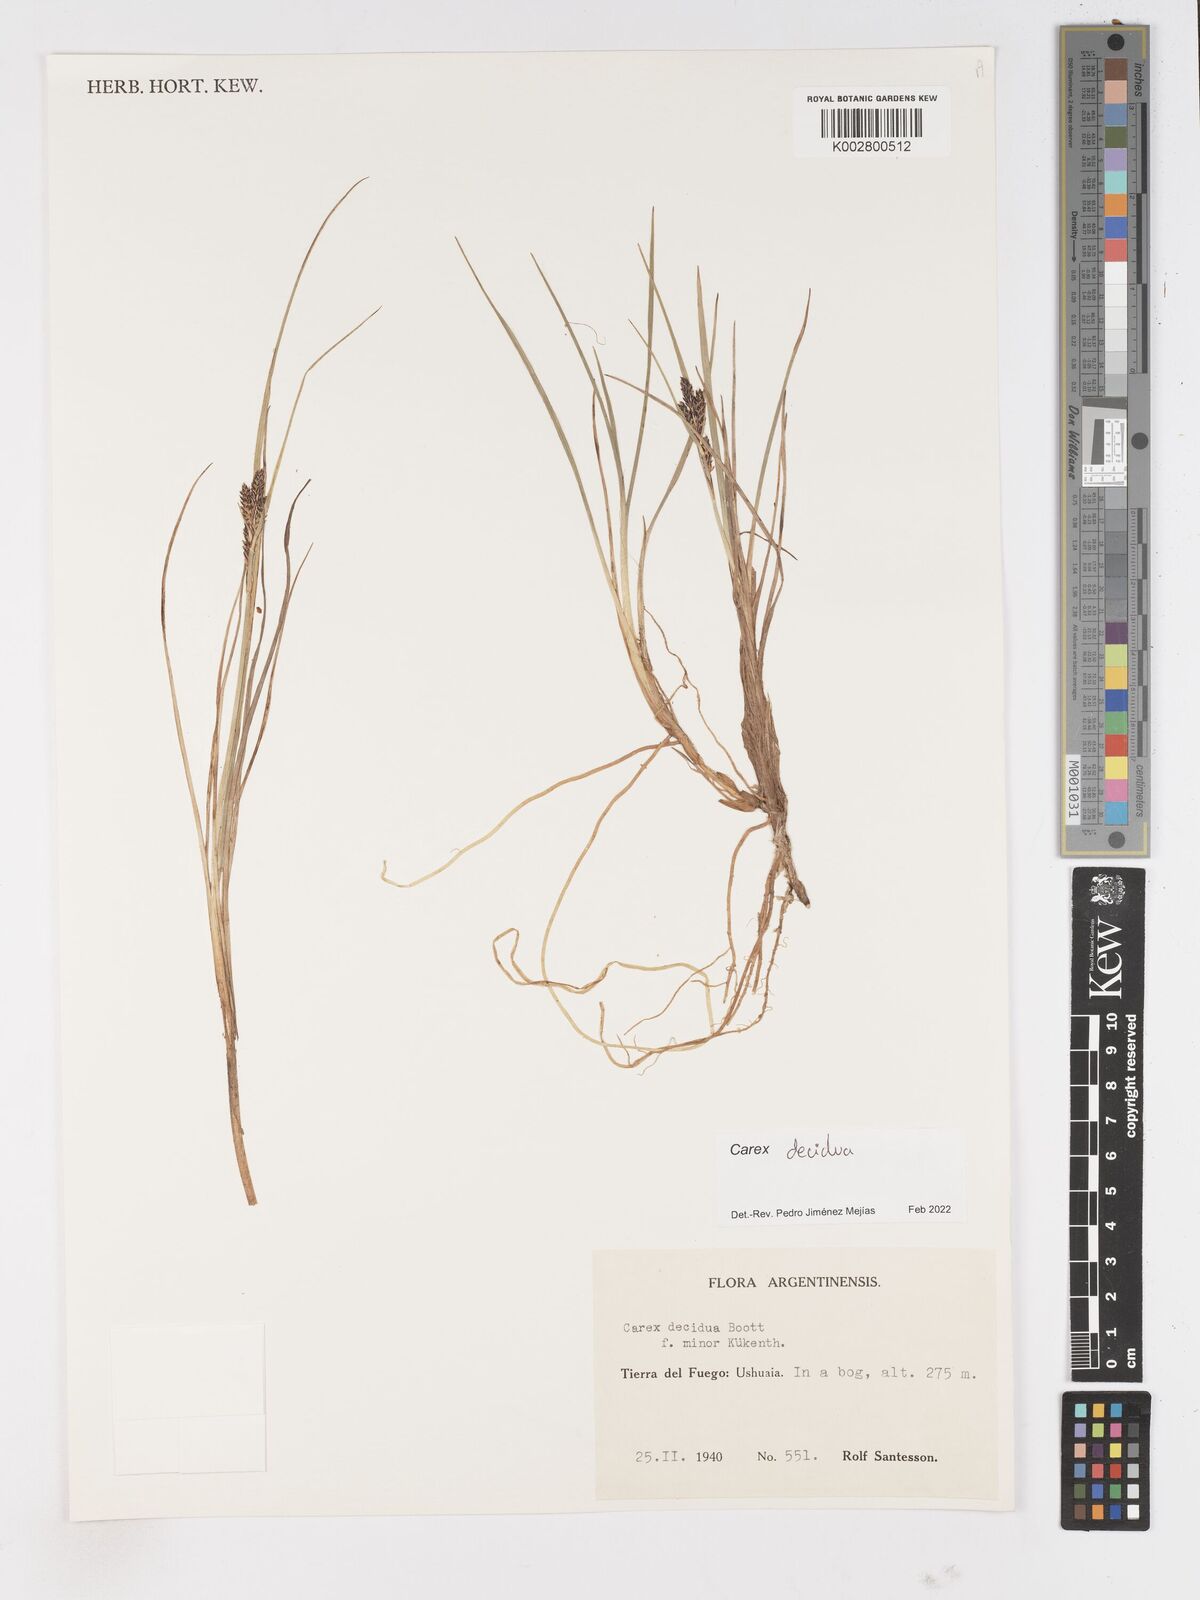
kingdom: Plantae
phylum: Tracheophyta
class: Liliopsida
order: Poales
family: Cyperaceae
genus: Carex
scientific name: Carex decidua
